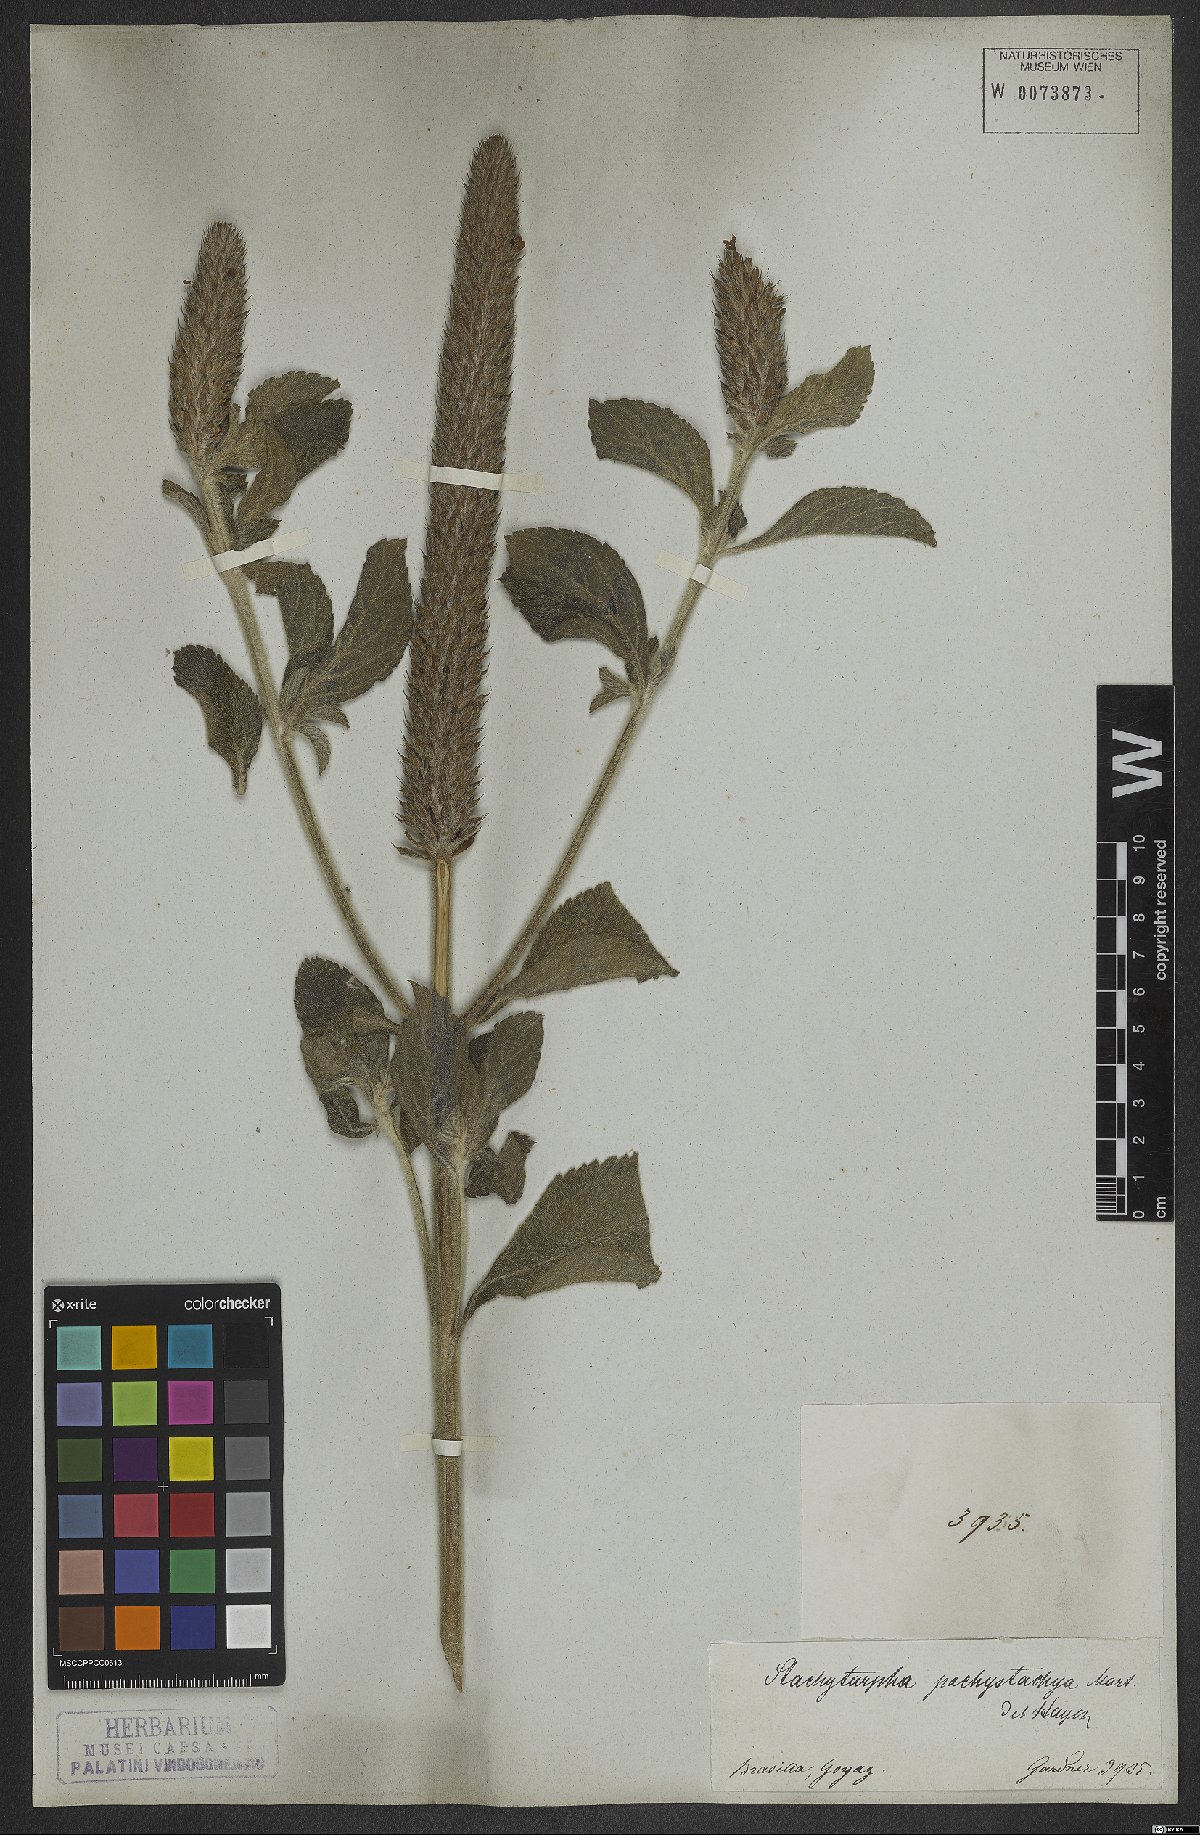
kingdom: Plantae
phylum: Tracheophyta
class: Magnoliopsida
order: Lamiales
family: Verbenaceae
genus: Stachytarpheta
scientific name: Stachytarpheta pachystachya
